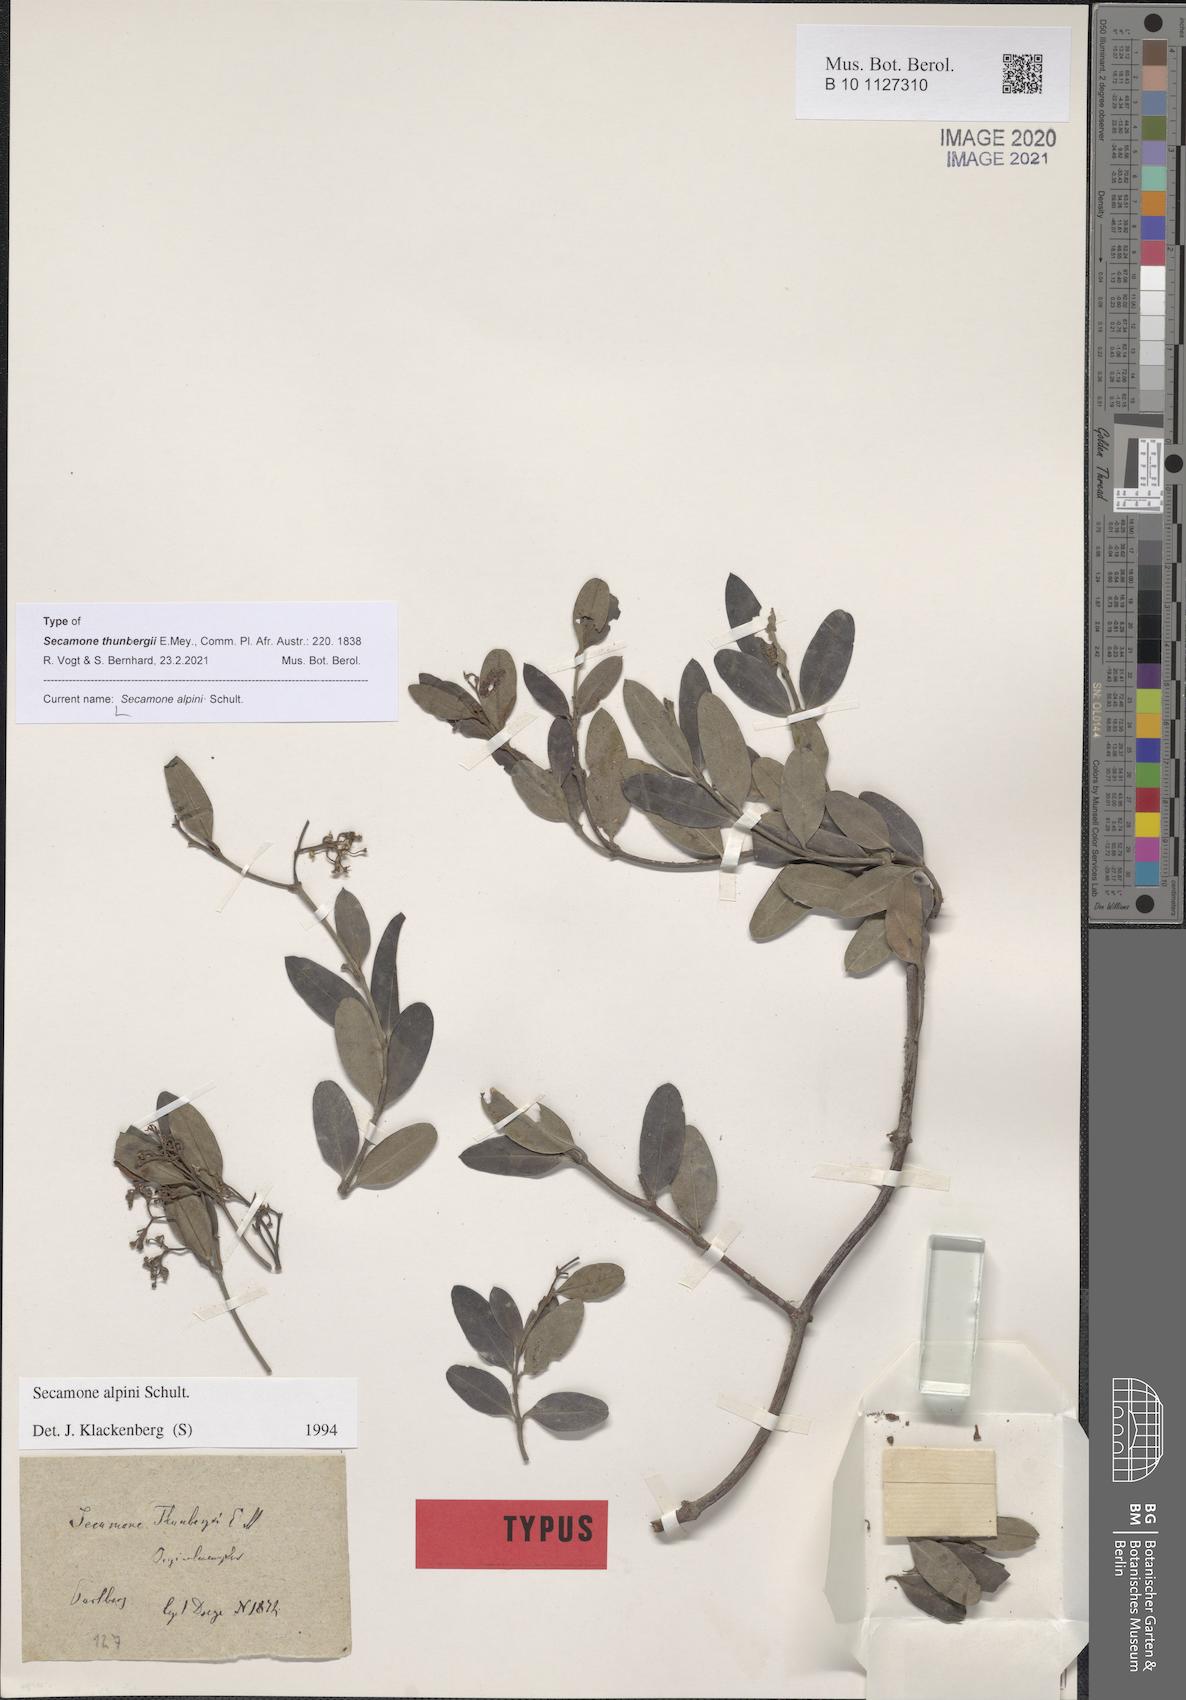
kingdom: Plantae
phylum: Tracheophyta
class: Magnoliopsida
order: Gentianales
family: Apocynaceae
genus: Secamone
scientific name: Secamone alpini
